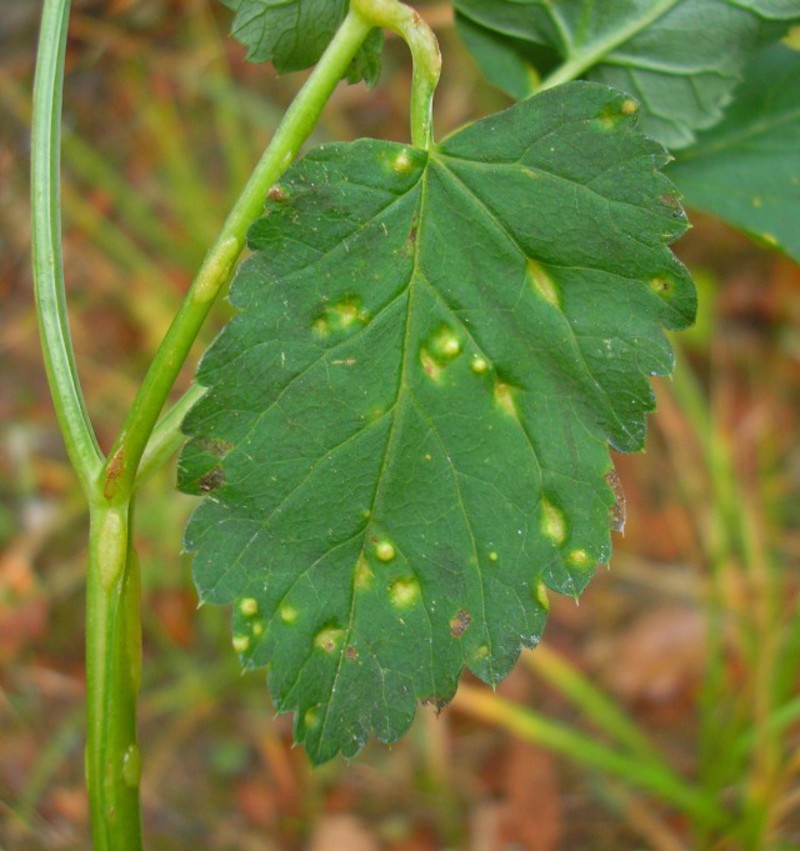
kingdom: Fungi
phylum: Ascomycota
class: Taphrinomycetes
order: Taphrinales
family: Taphrinaceae
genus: Protomyces
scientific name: Protomyces macrosporus
